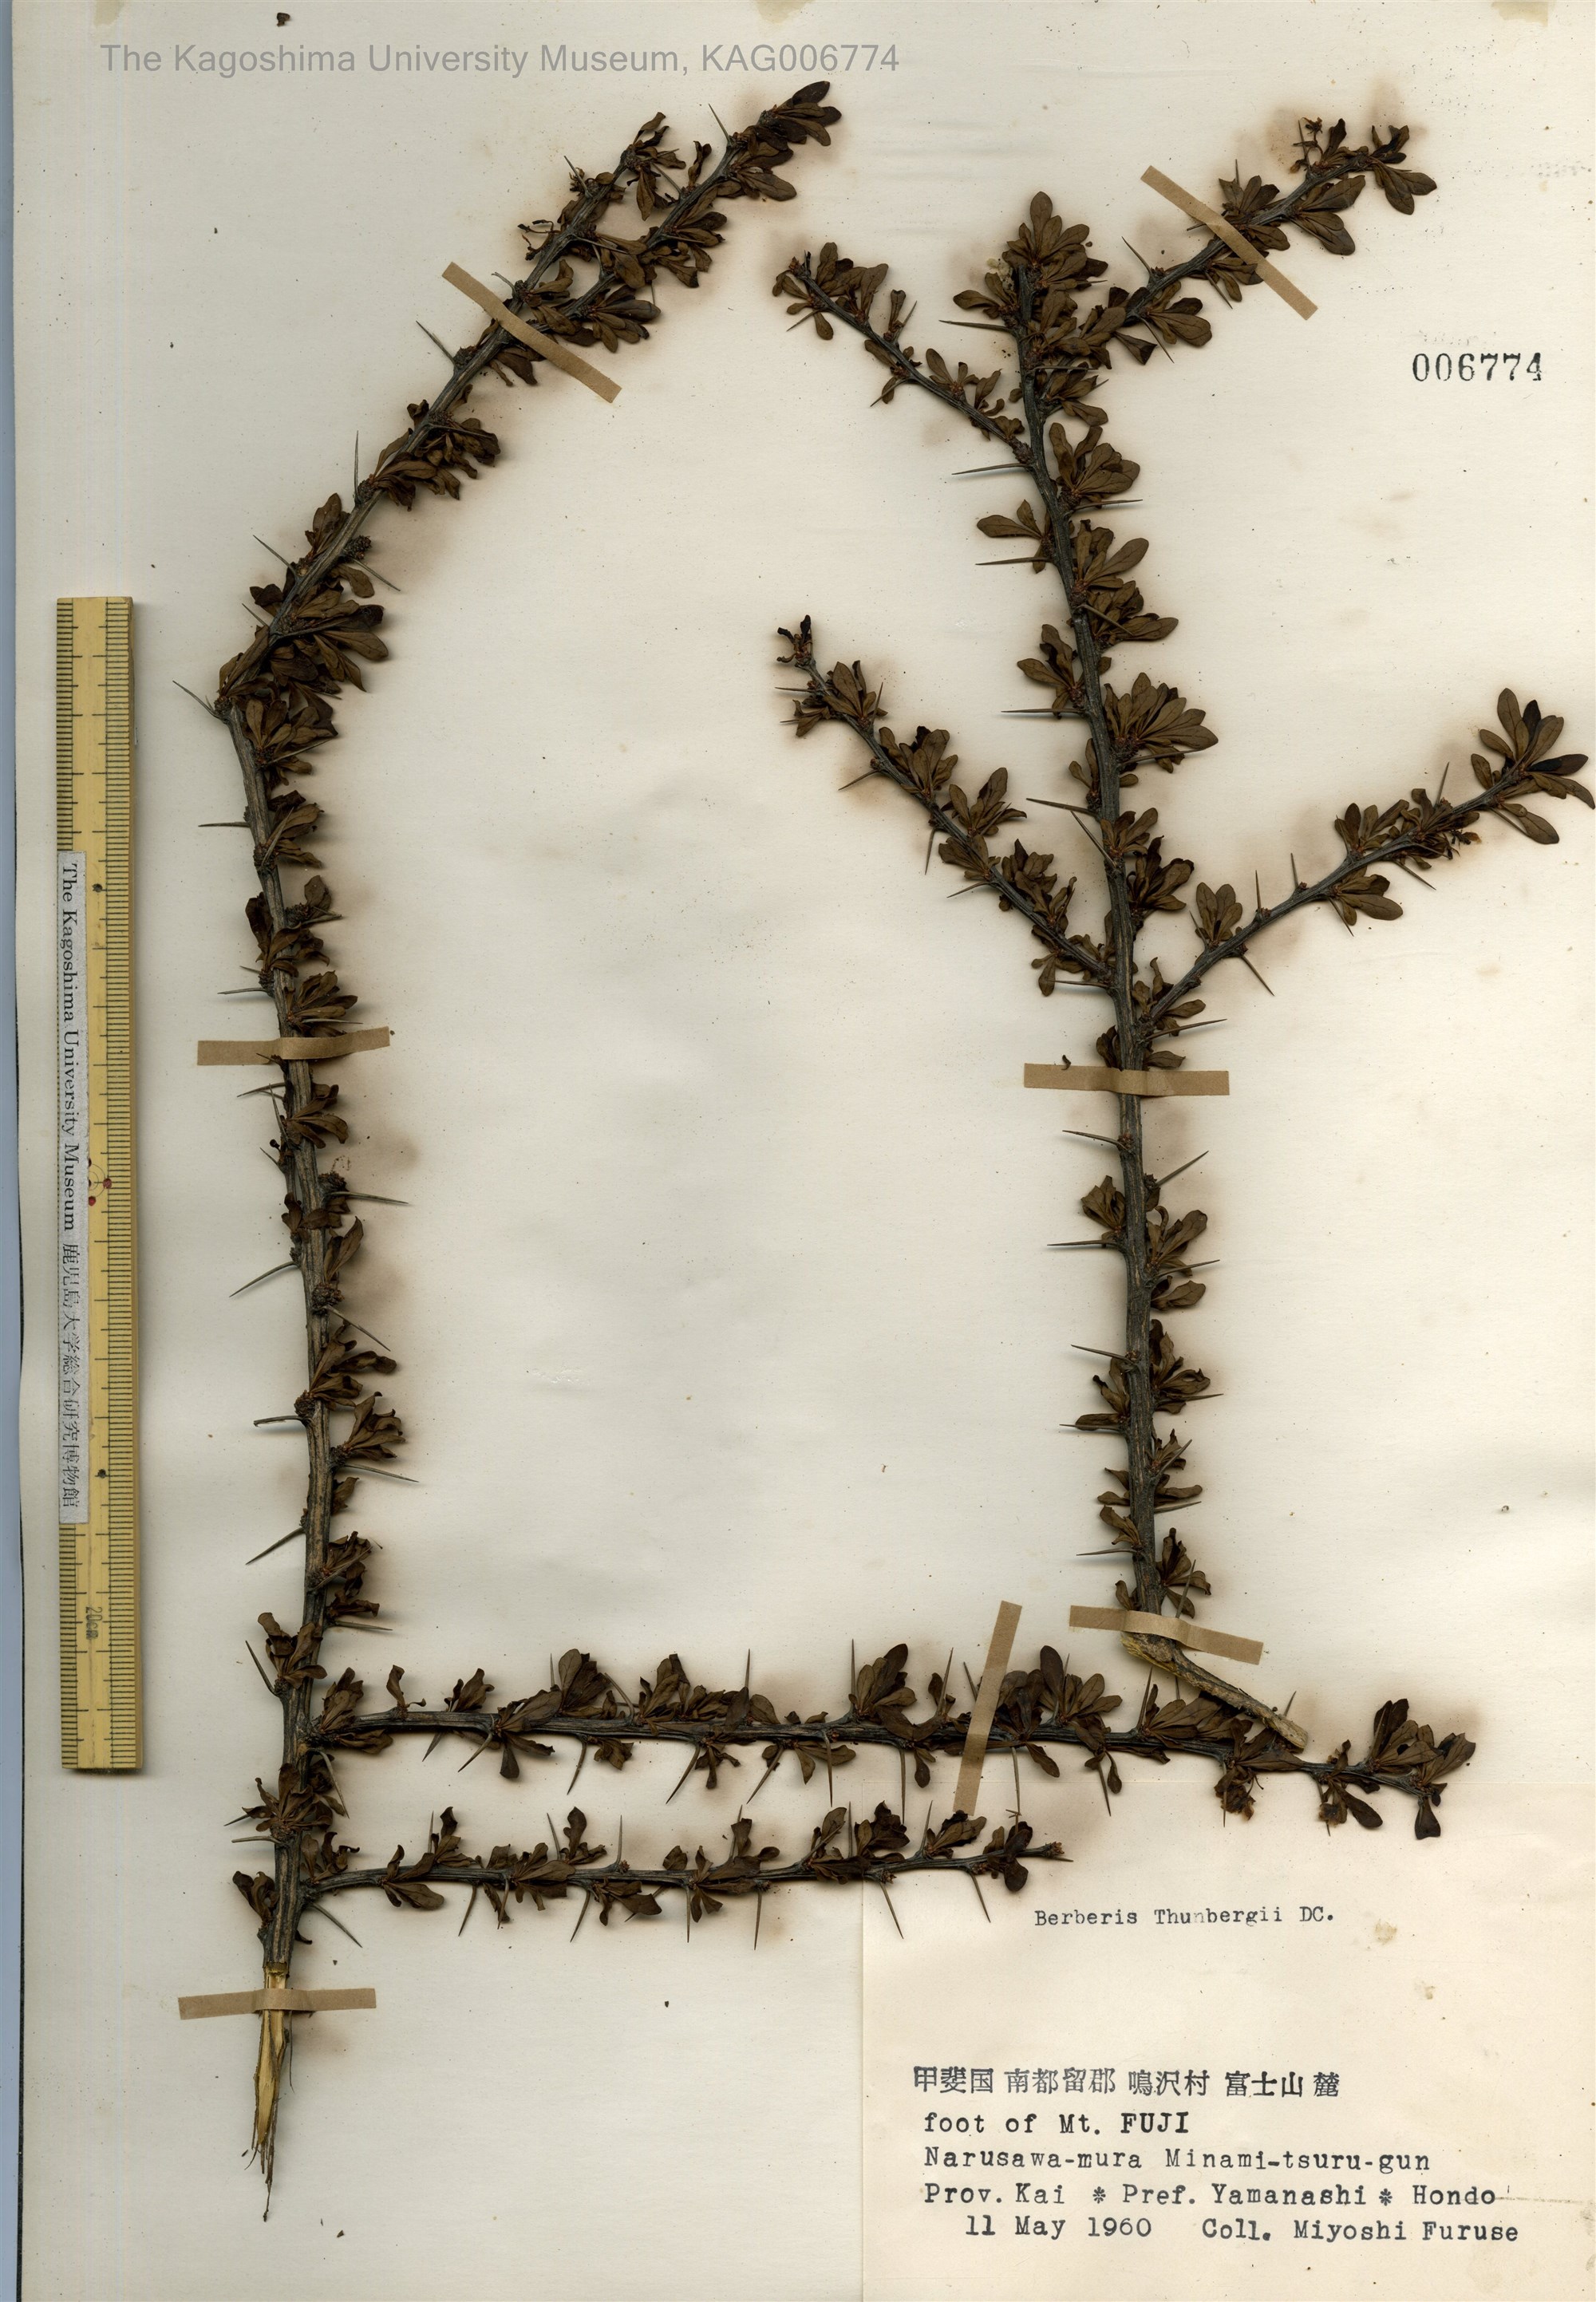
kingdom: Plantae
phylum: Tracheophyta
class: Magnoliopsida
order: Ranunculales
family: Berberidaceae
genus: Berberis
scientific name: Berberis thunbergii
